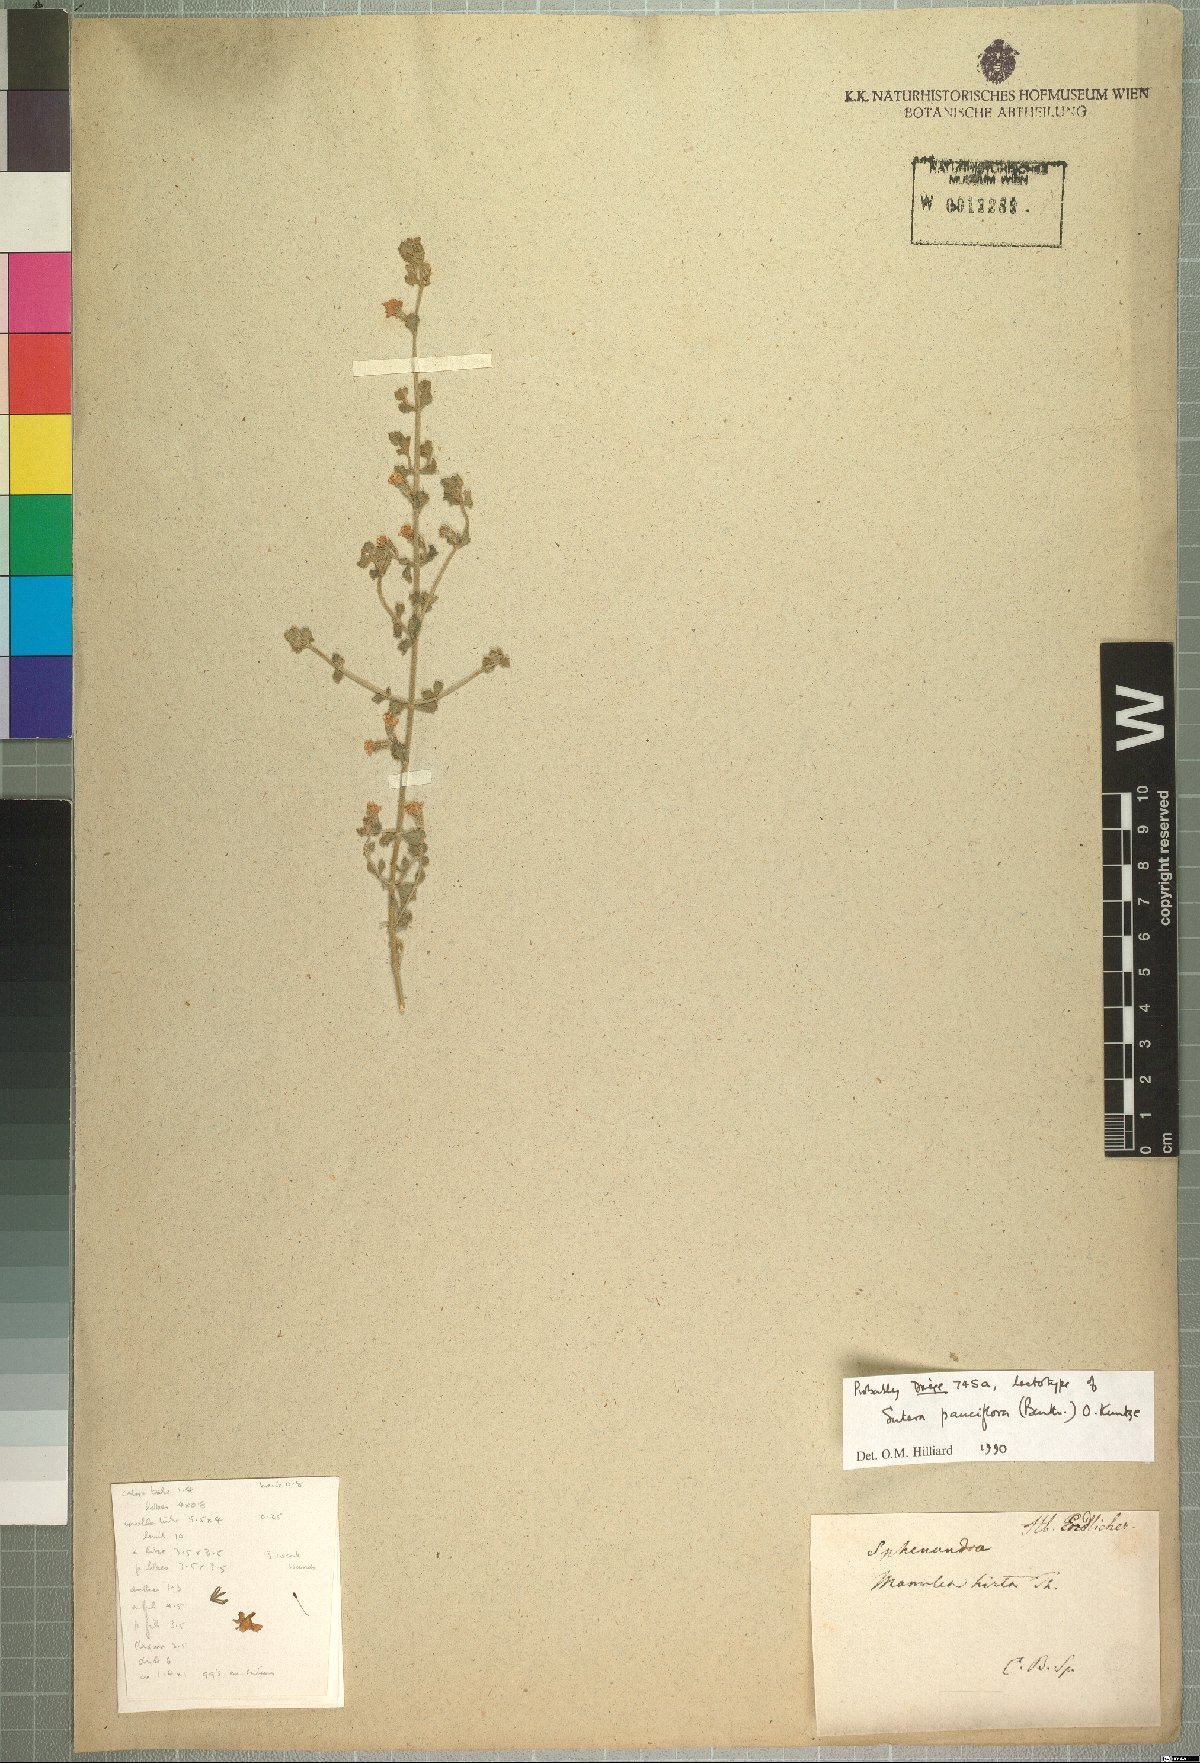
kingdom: Plantae
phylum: Tracheophyta
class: Magnoliopsida
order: Lamiales
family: Scrophulariaceae
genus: Chaenostoma
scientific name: Chaenostoma pauciflorum
